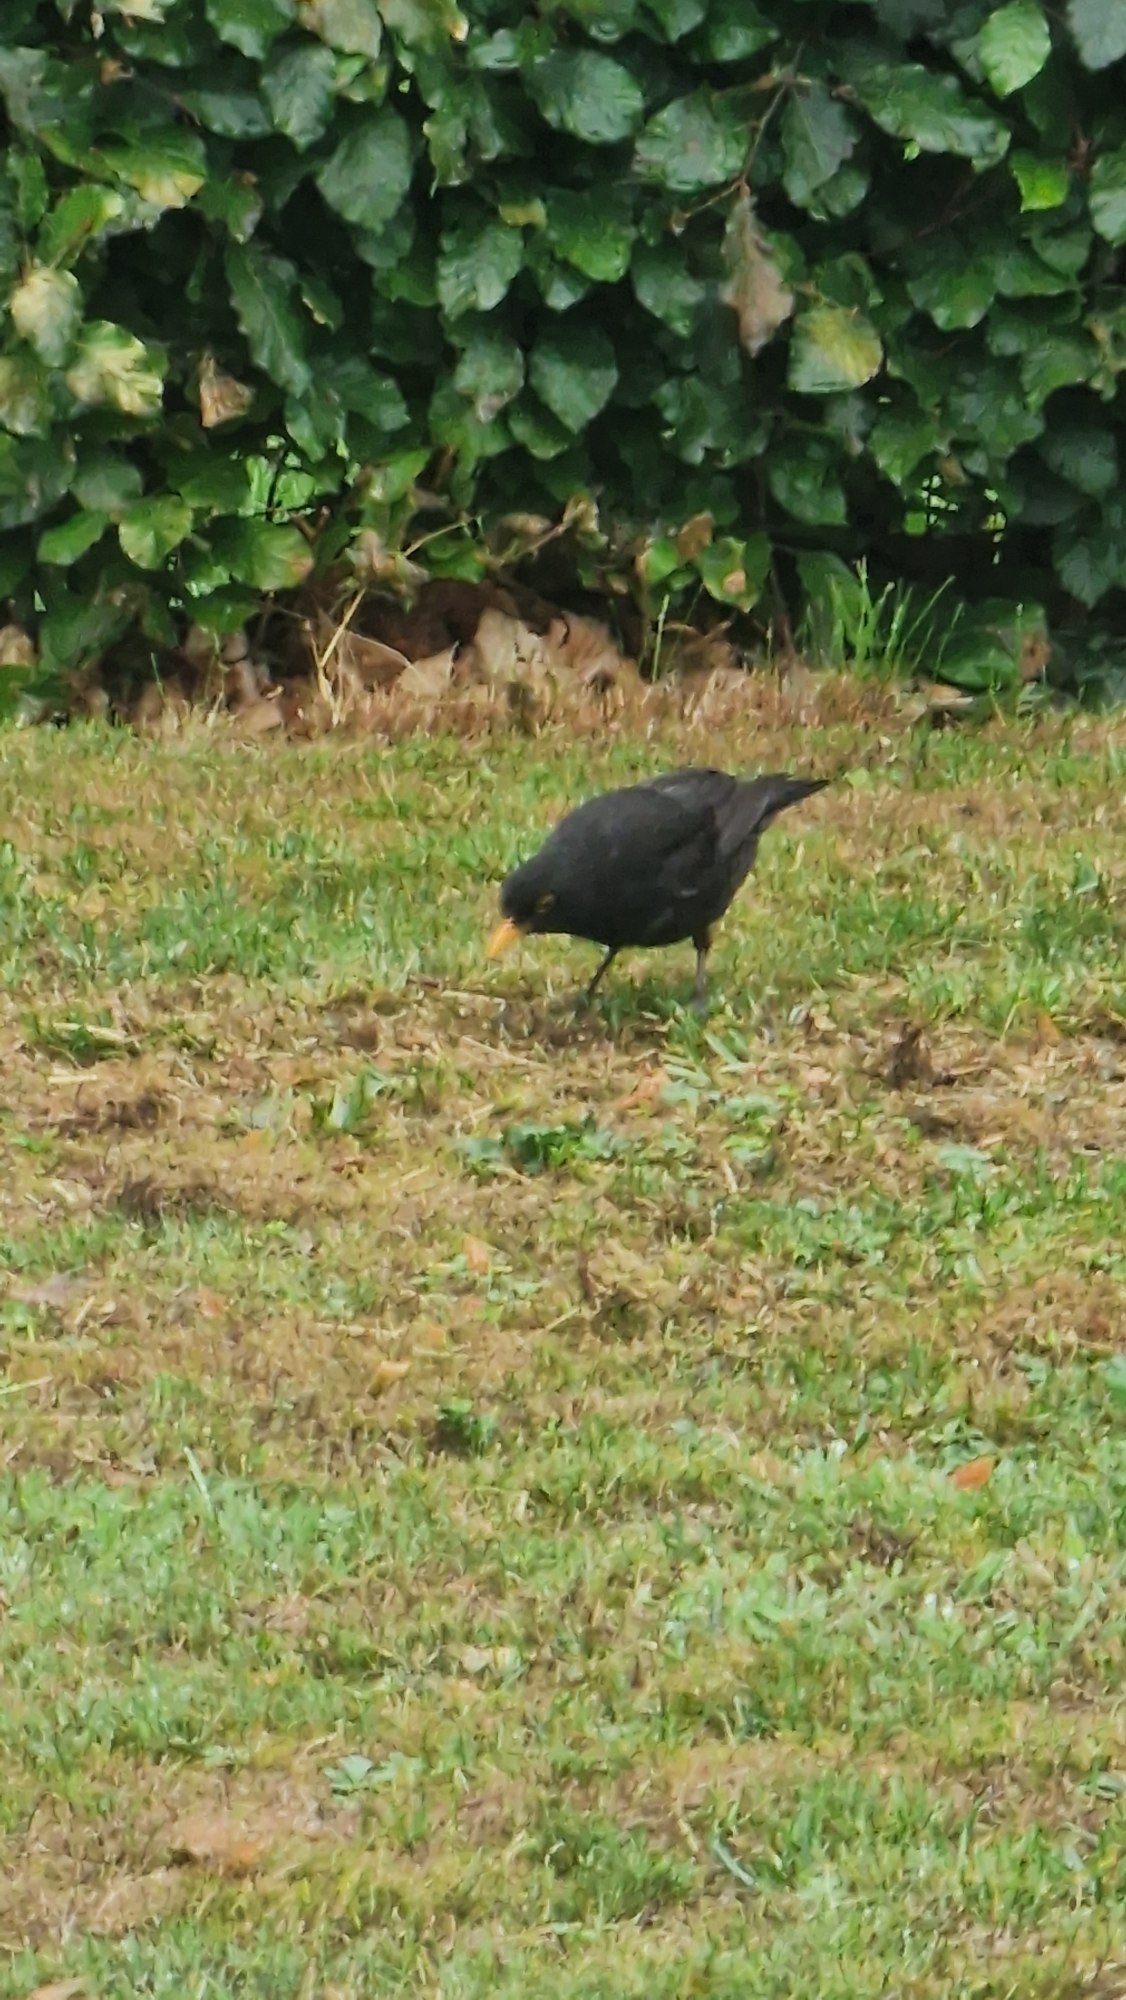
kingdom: Animalia
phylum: Chordata
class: Aves
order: Passeriformes
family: Turdidae
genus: Turdus
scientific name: Turdus merula
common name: Solsort
